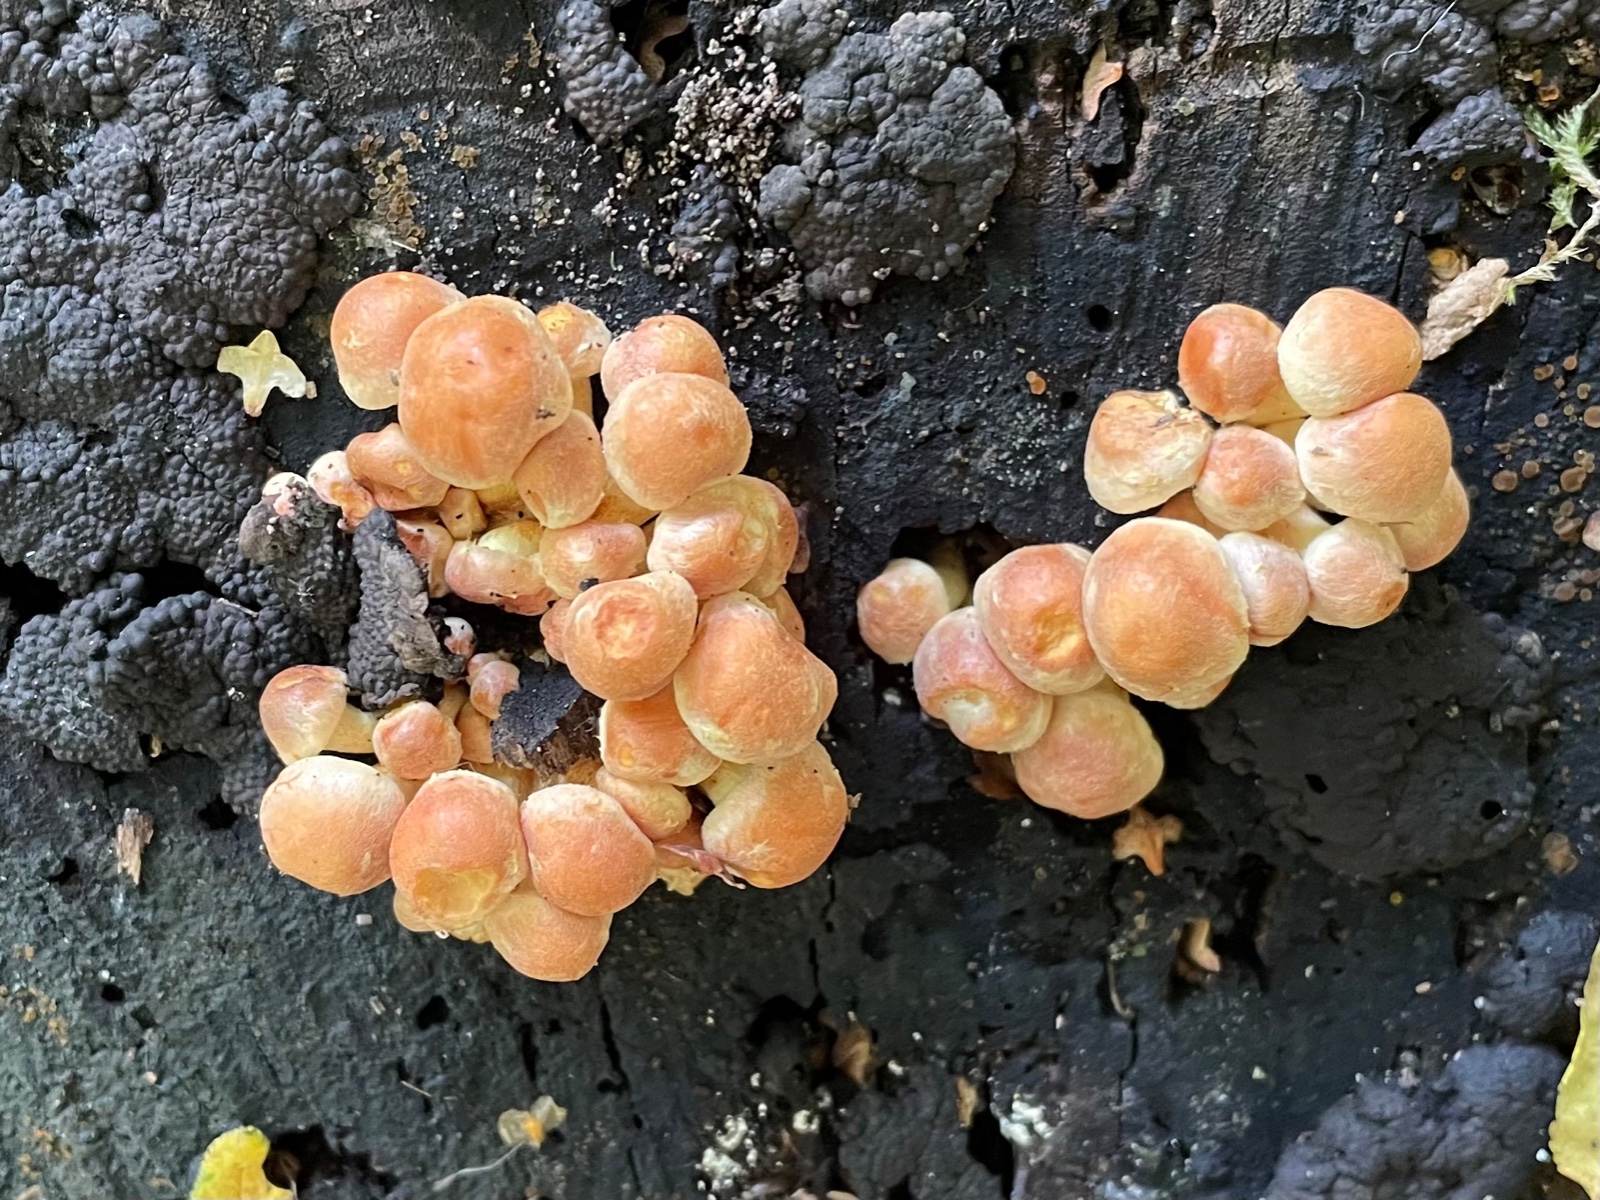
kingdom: Fungi
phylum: Basidiomycota
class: Agaricomycetes
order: Agaricales
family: Strophariaceae
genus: Hypholoma
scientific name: Hypholoma fasciculare
